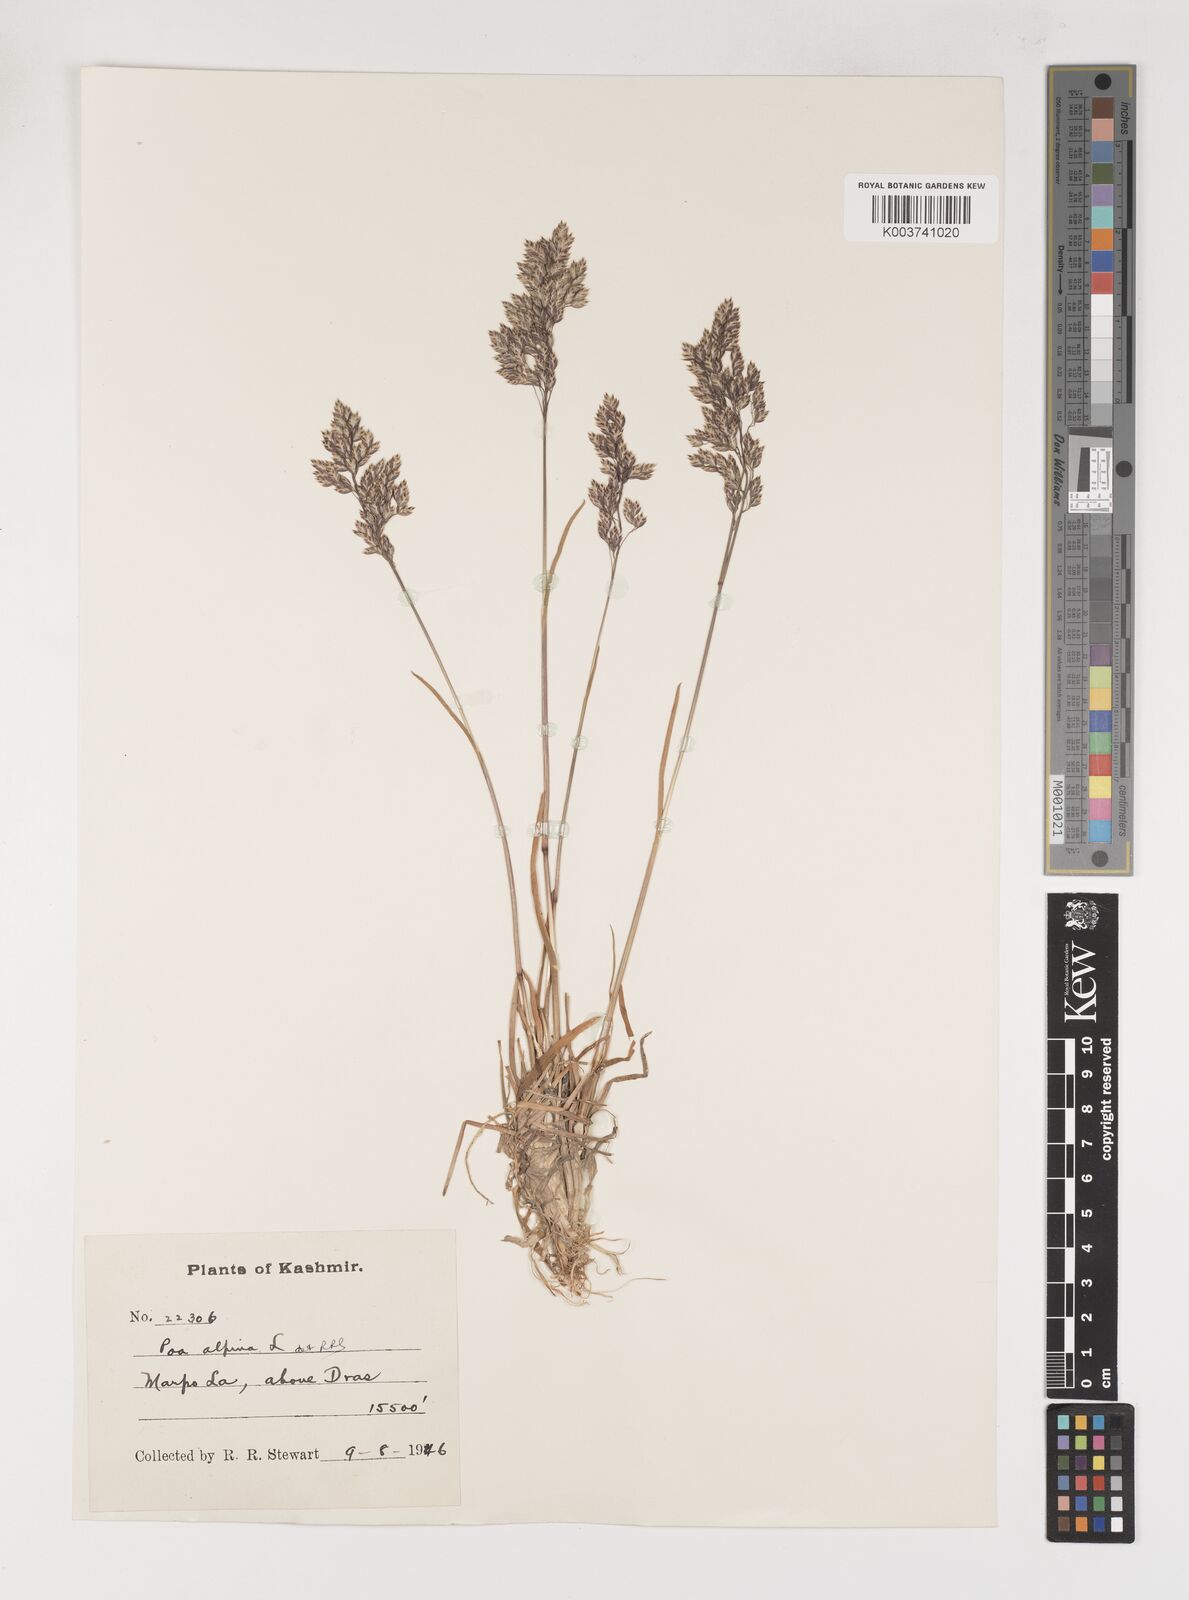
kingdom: Plantae
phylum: Tracheophyta
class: Liliopsida
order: Poales
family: Poaceae
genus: Poa
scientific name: Poa alpina
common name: Alpine bluegrass
